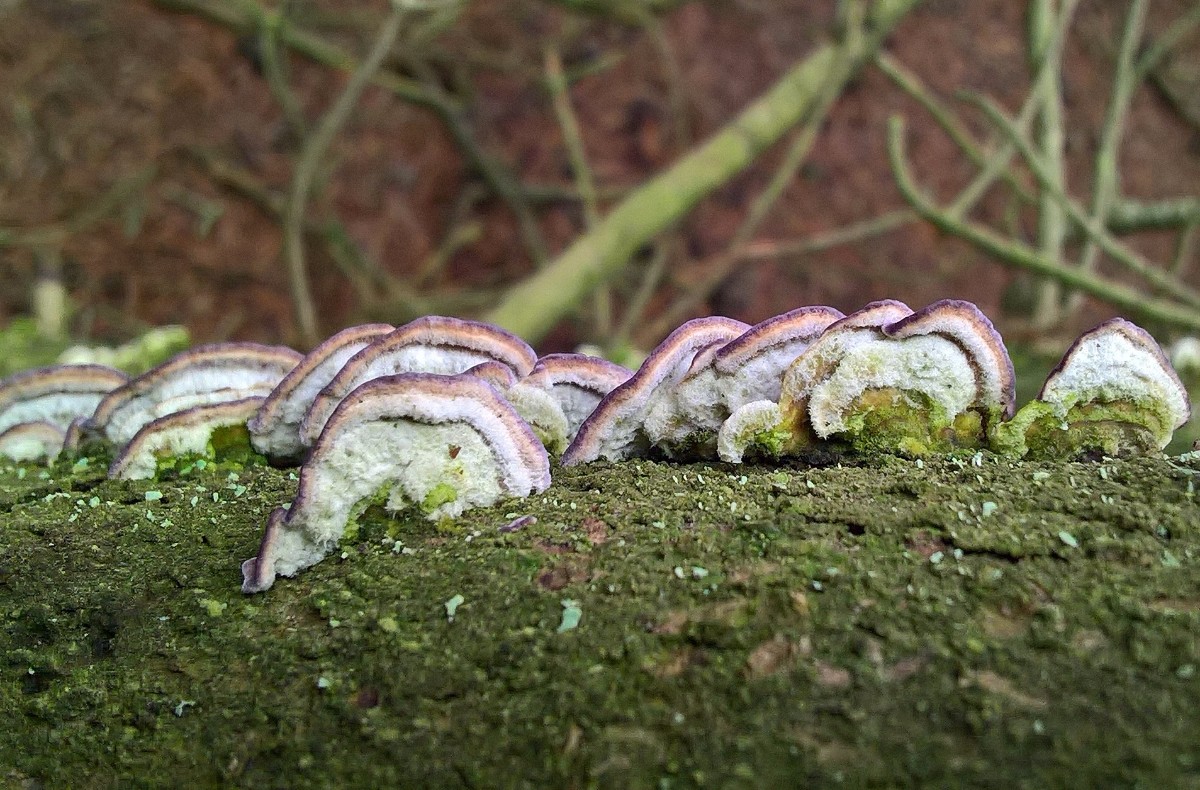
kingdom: Fungi
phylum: Basidiomycota
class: Agaricomycetes
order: Hymenochaetales
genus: Trichaptum
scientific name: Trichaptum abietinum
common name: almindelig violporesvamp
